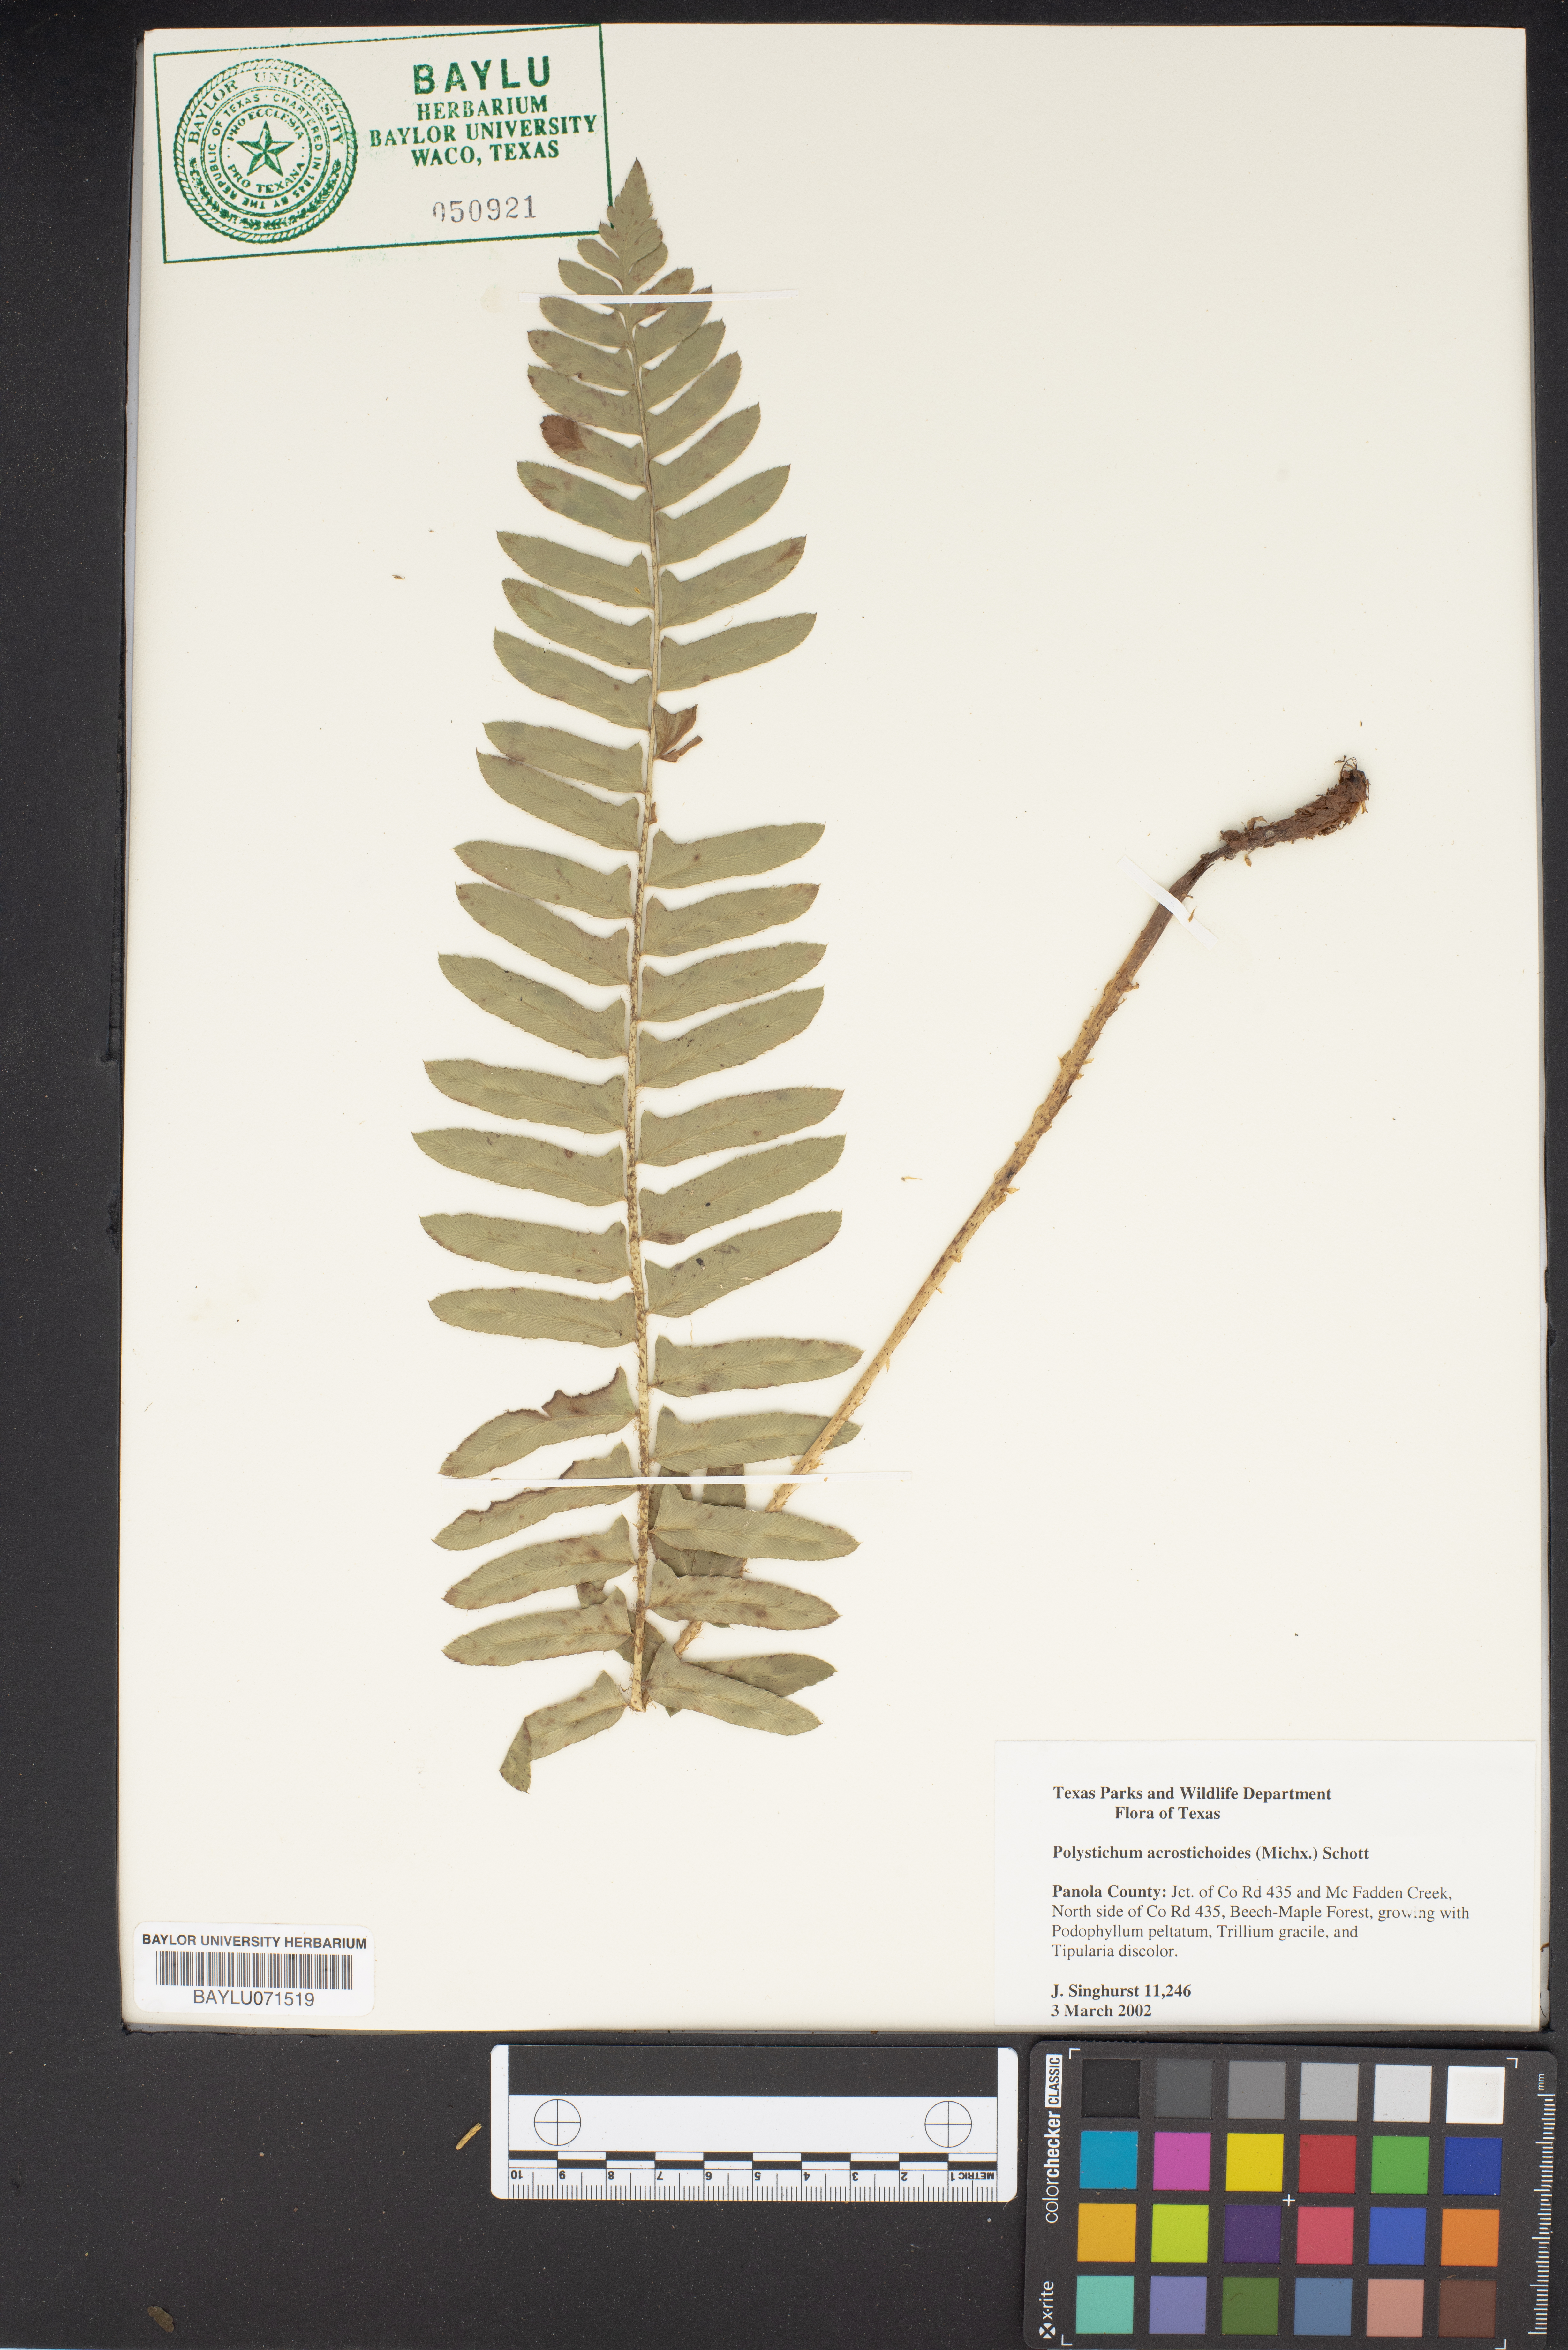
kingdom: Plantae
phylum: Tracheophyta
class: Polypodiopsida
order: Polypodiales
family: Dryopteridaceae
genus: Polystichum
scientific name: Polystichum acrostichoides
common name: Christmas fern
